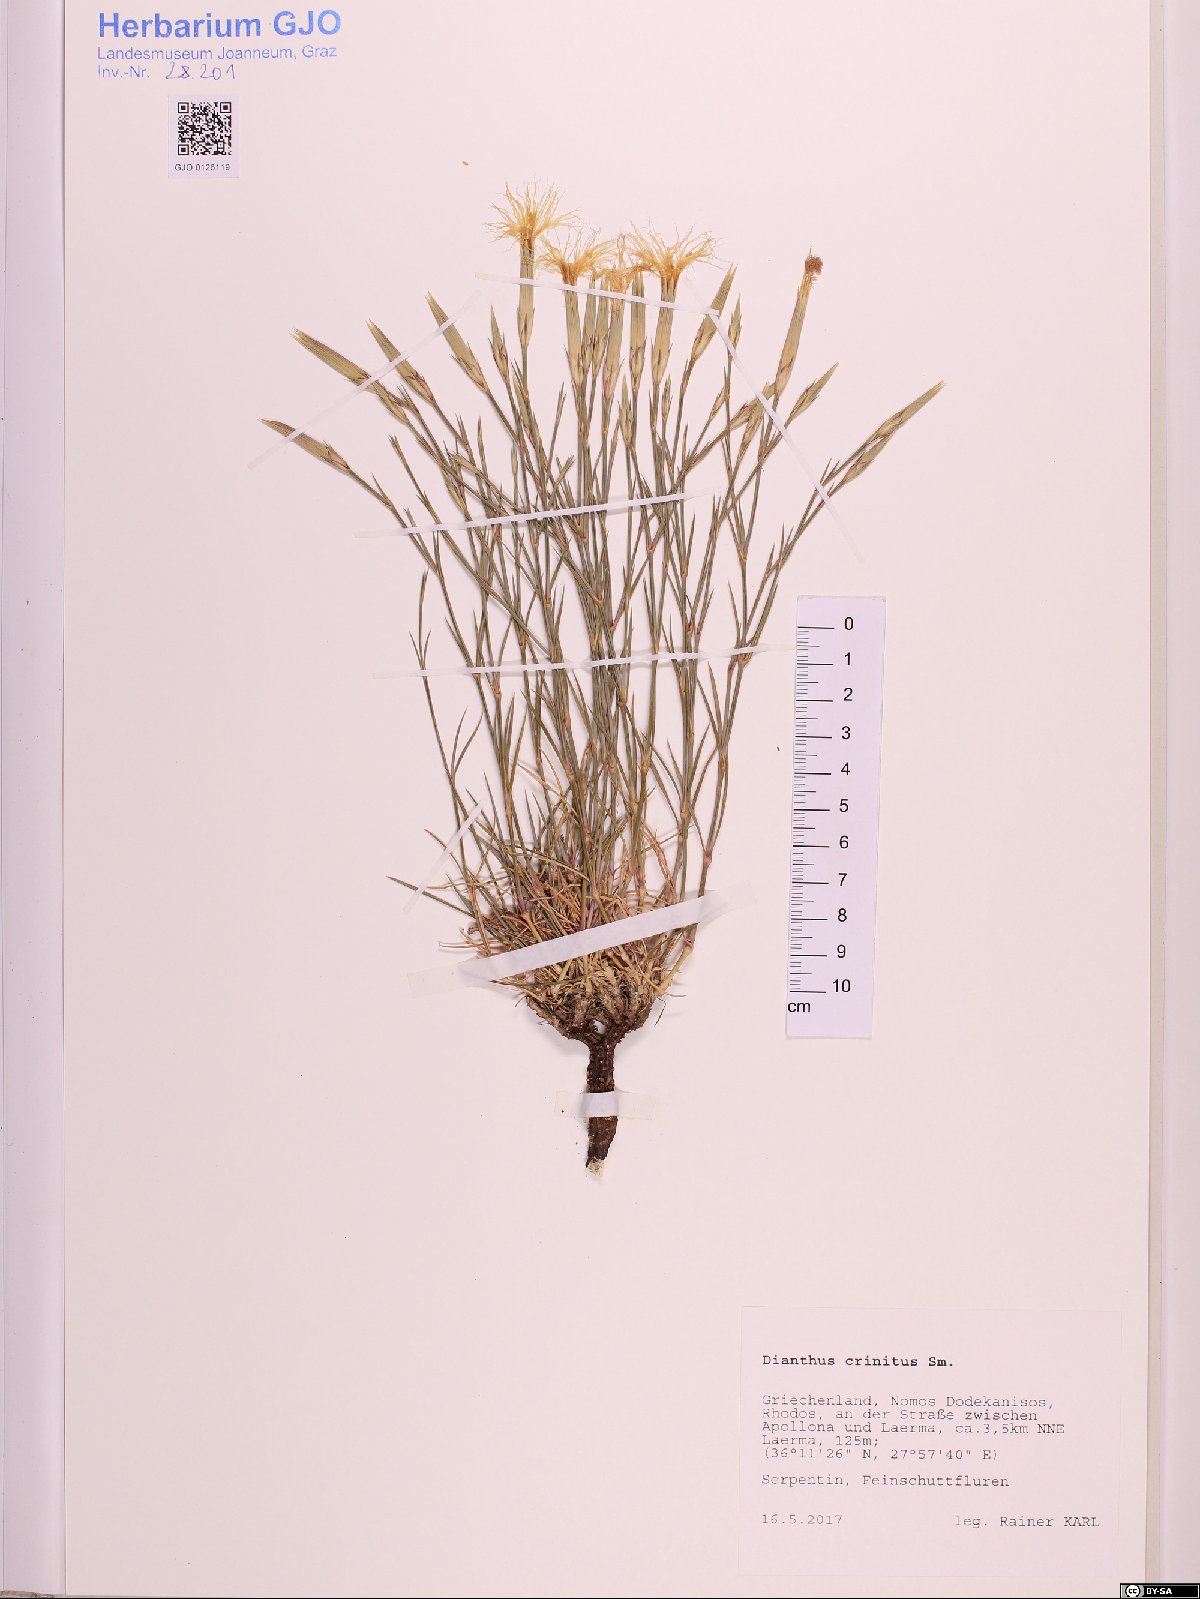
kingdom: Plantae
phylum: Tracheophyta
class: Magnoliopsida
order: Caryophyllales
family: Caryophyllaceae
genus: Dianthus
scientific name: Dianthus crinitus
